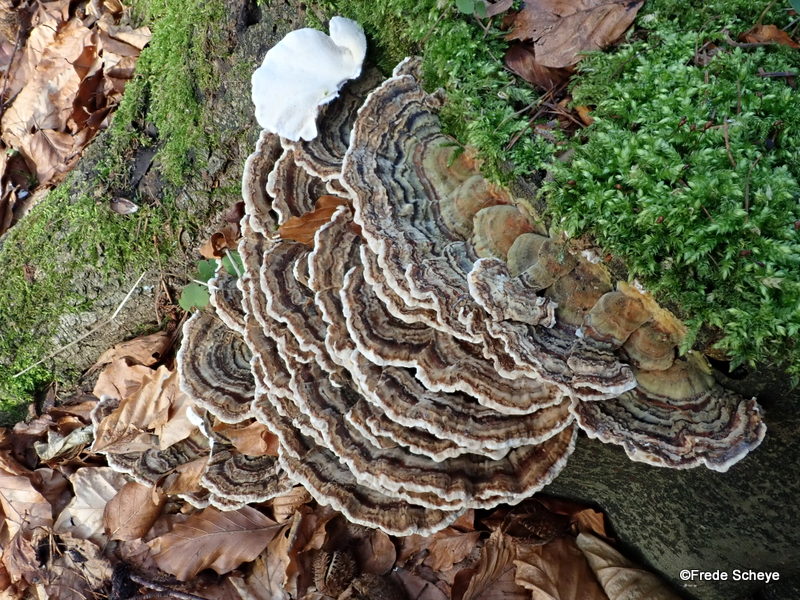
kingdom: Fungi
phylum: Basidiomycota
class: Agaricomycetes
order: Polyporales
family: Polyporaceae
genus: Trametes
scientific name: Trametes versicolor
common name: broget læderporesvamp
